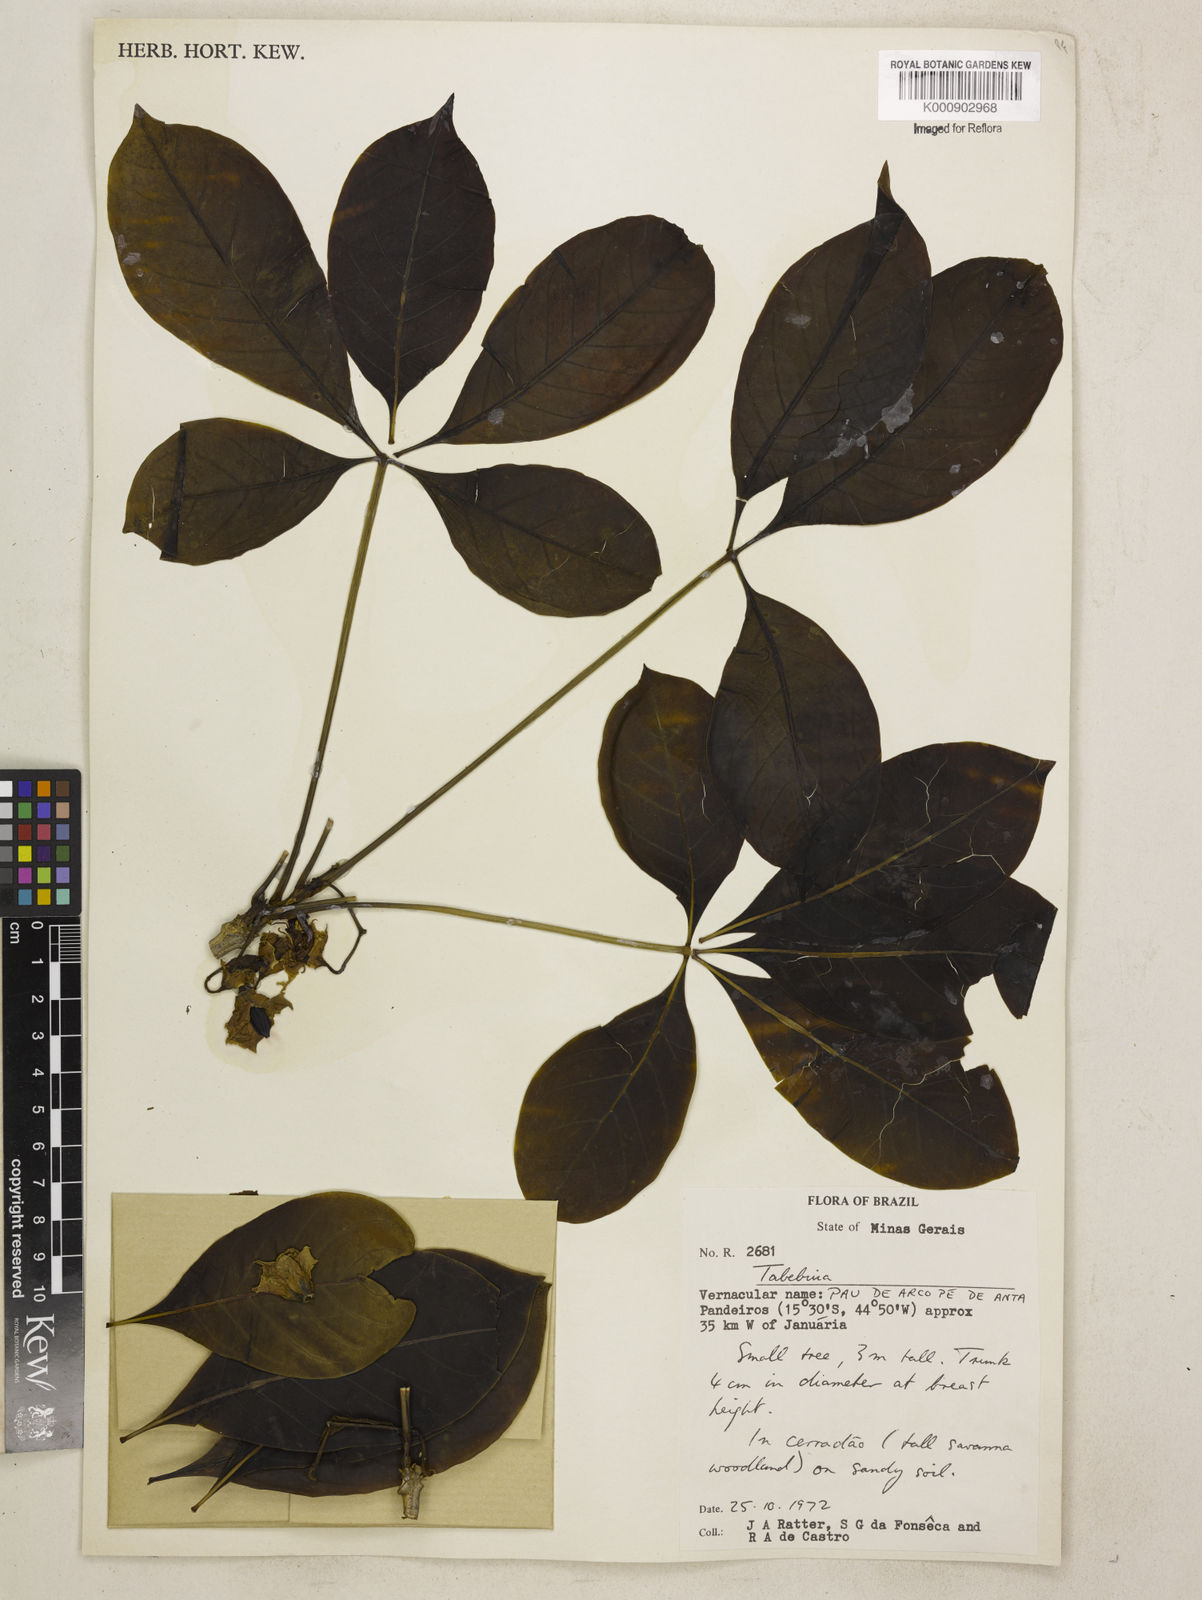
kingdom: Plantae
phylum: Tracheophyta
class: Magnoliopsida
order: Lamiales
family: Bignoniaceae
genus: Tabebuia
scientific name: Tabebuia
